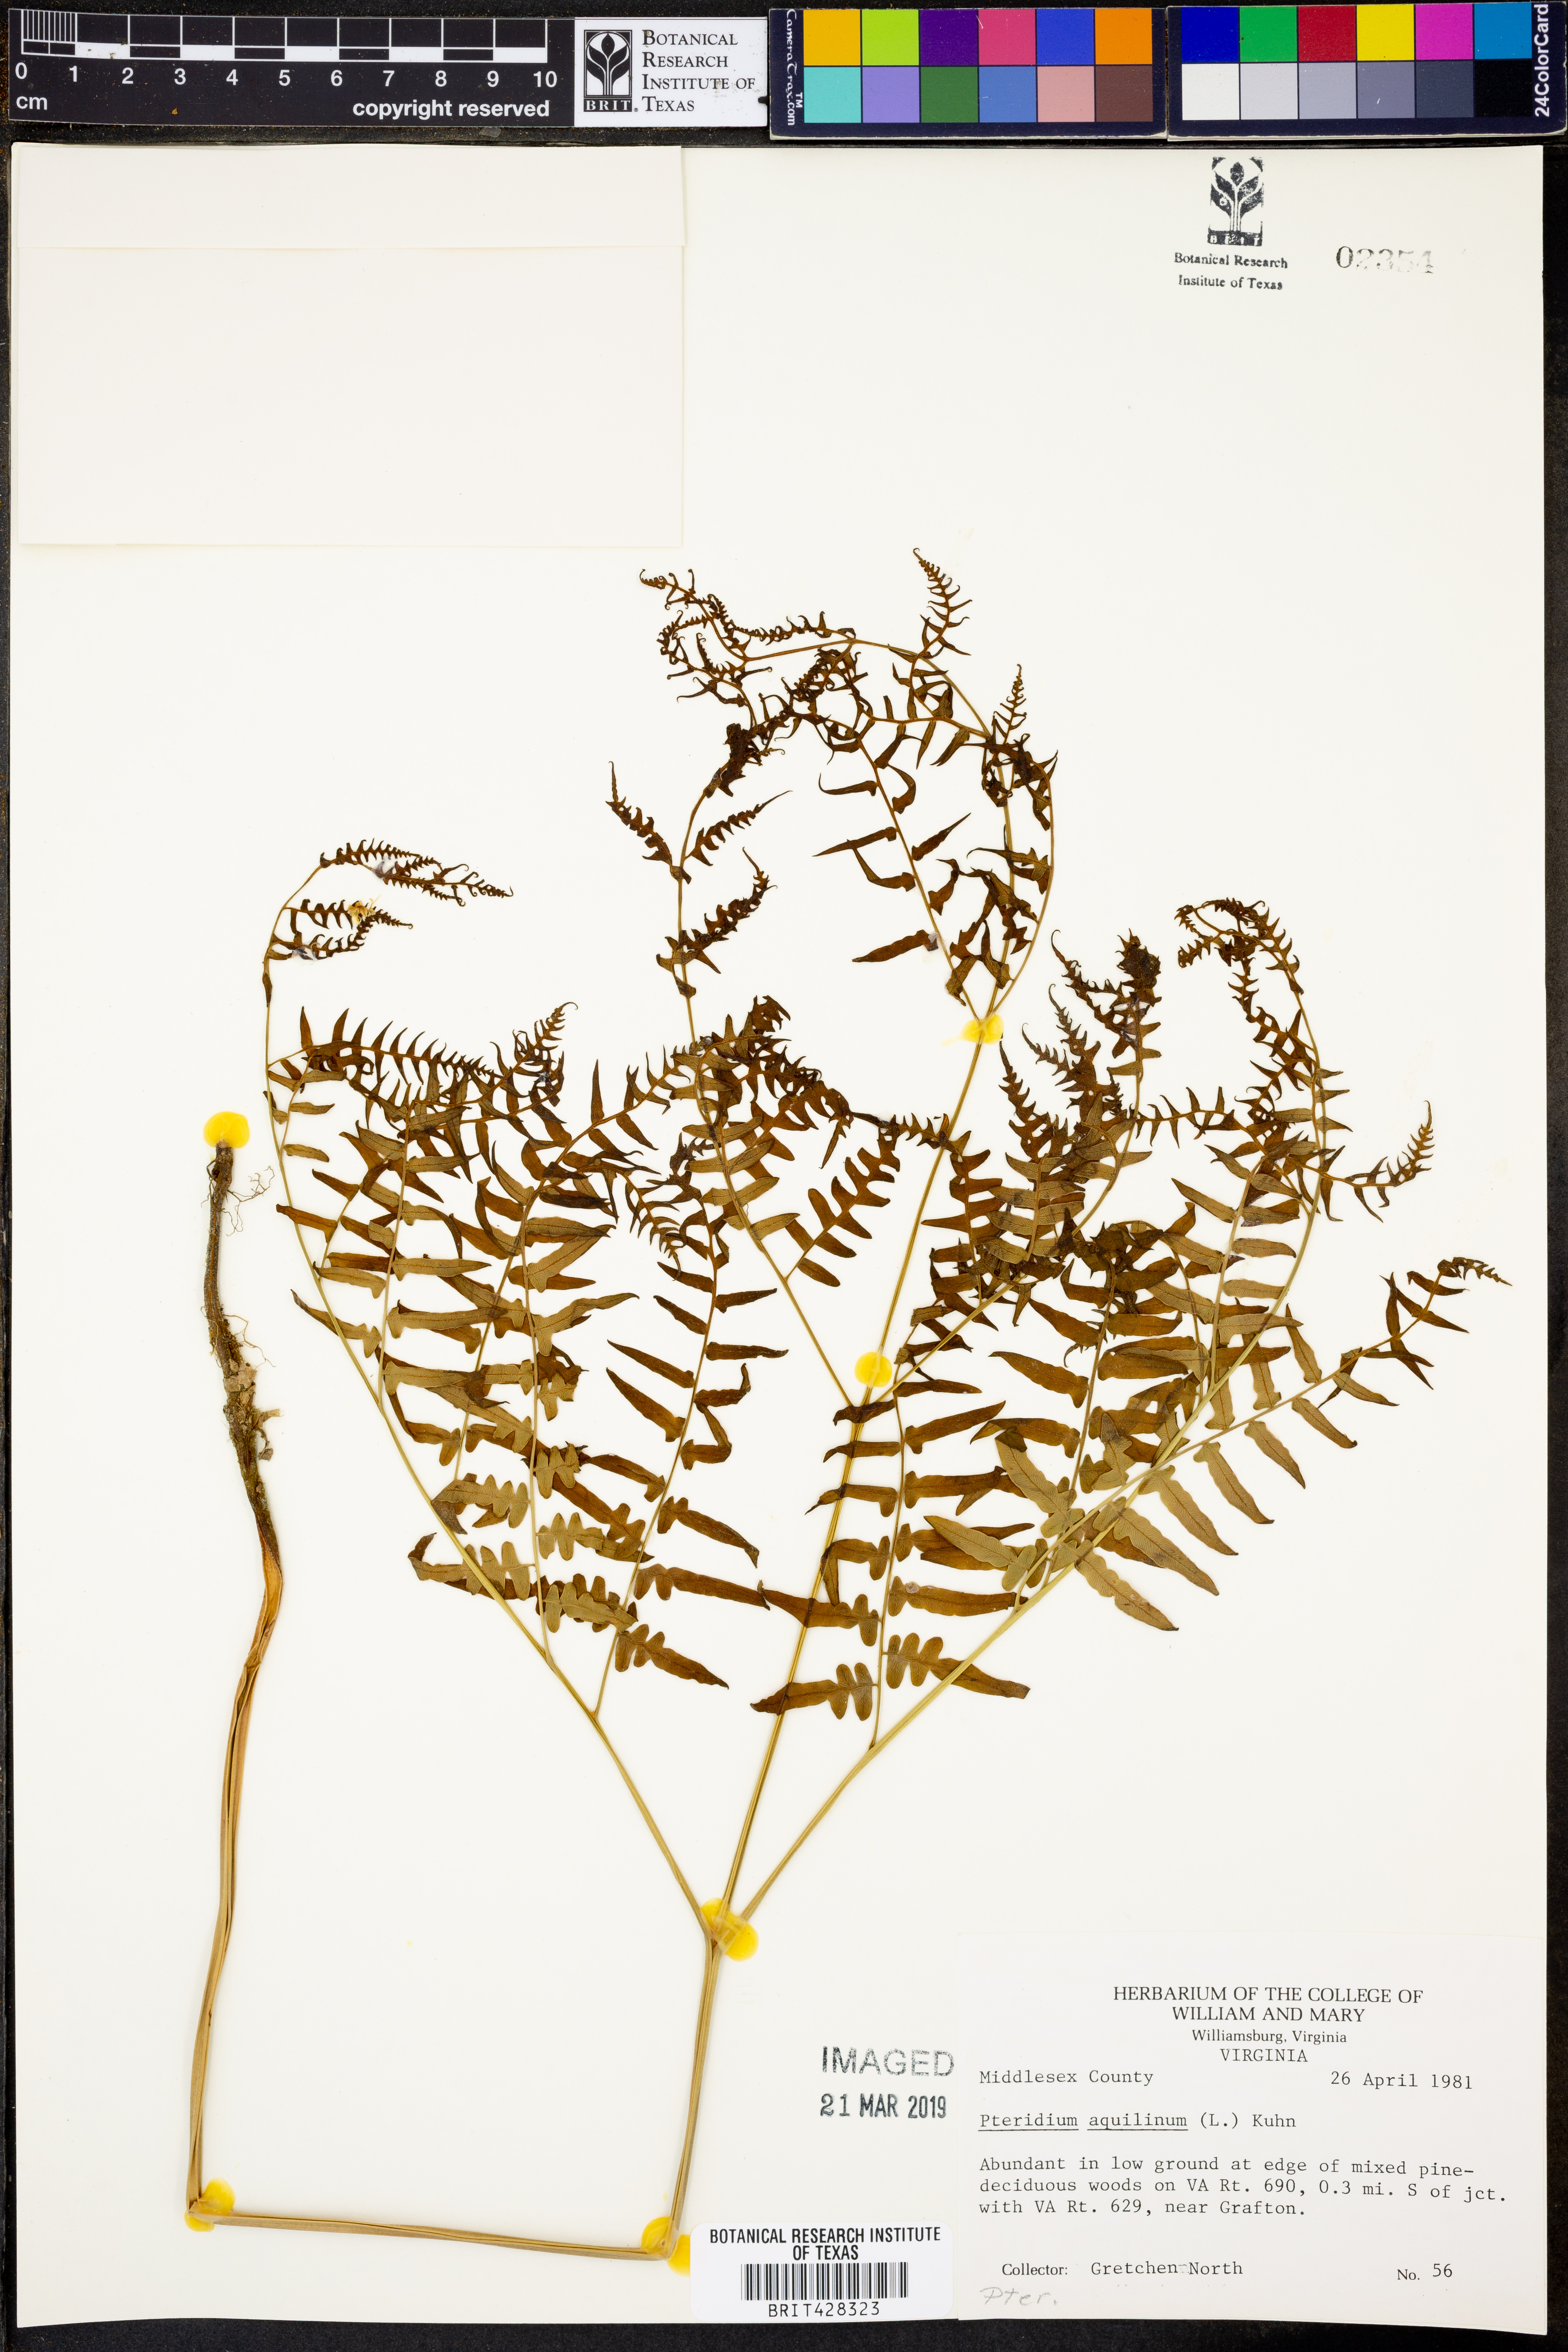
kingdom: Plantae
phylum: Tracheophyta
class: Polypodiopsida
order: Polypodiales
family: Dennstaedtiaceae
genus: Pteridium
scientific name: Pteridium aquilinum
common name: Bracken
